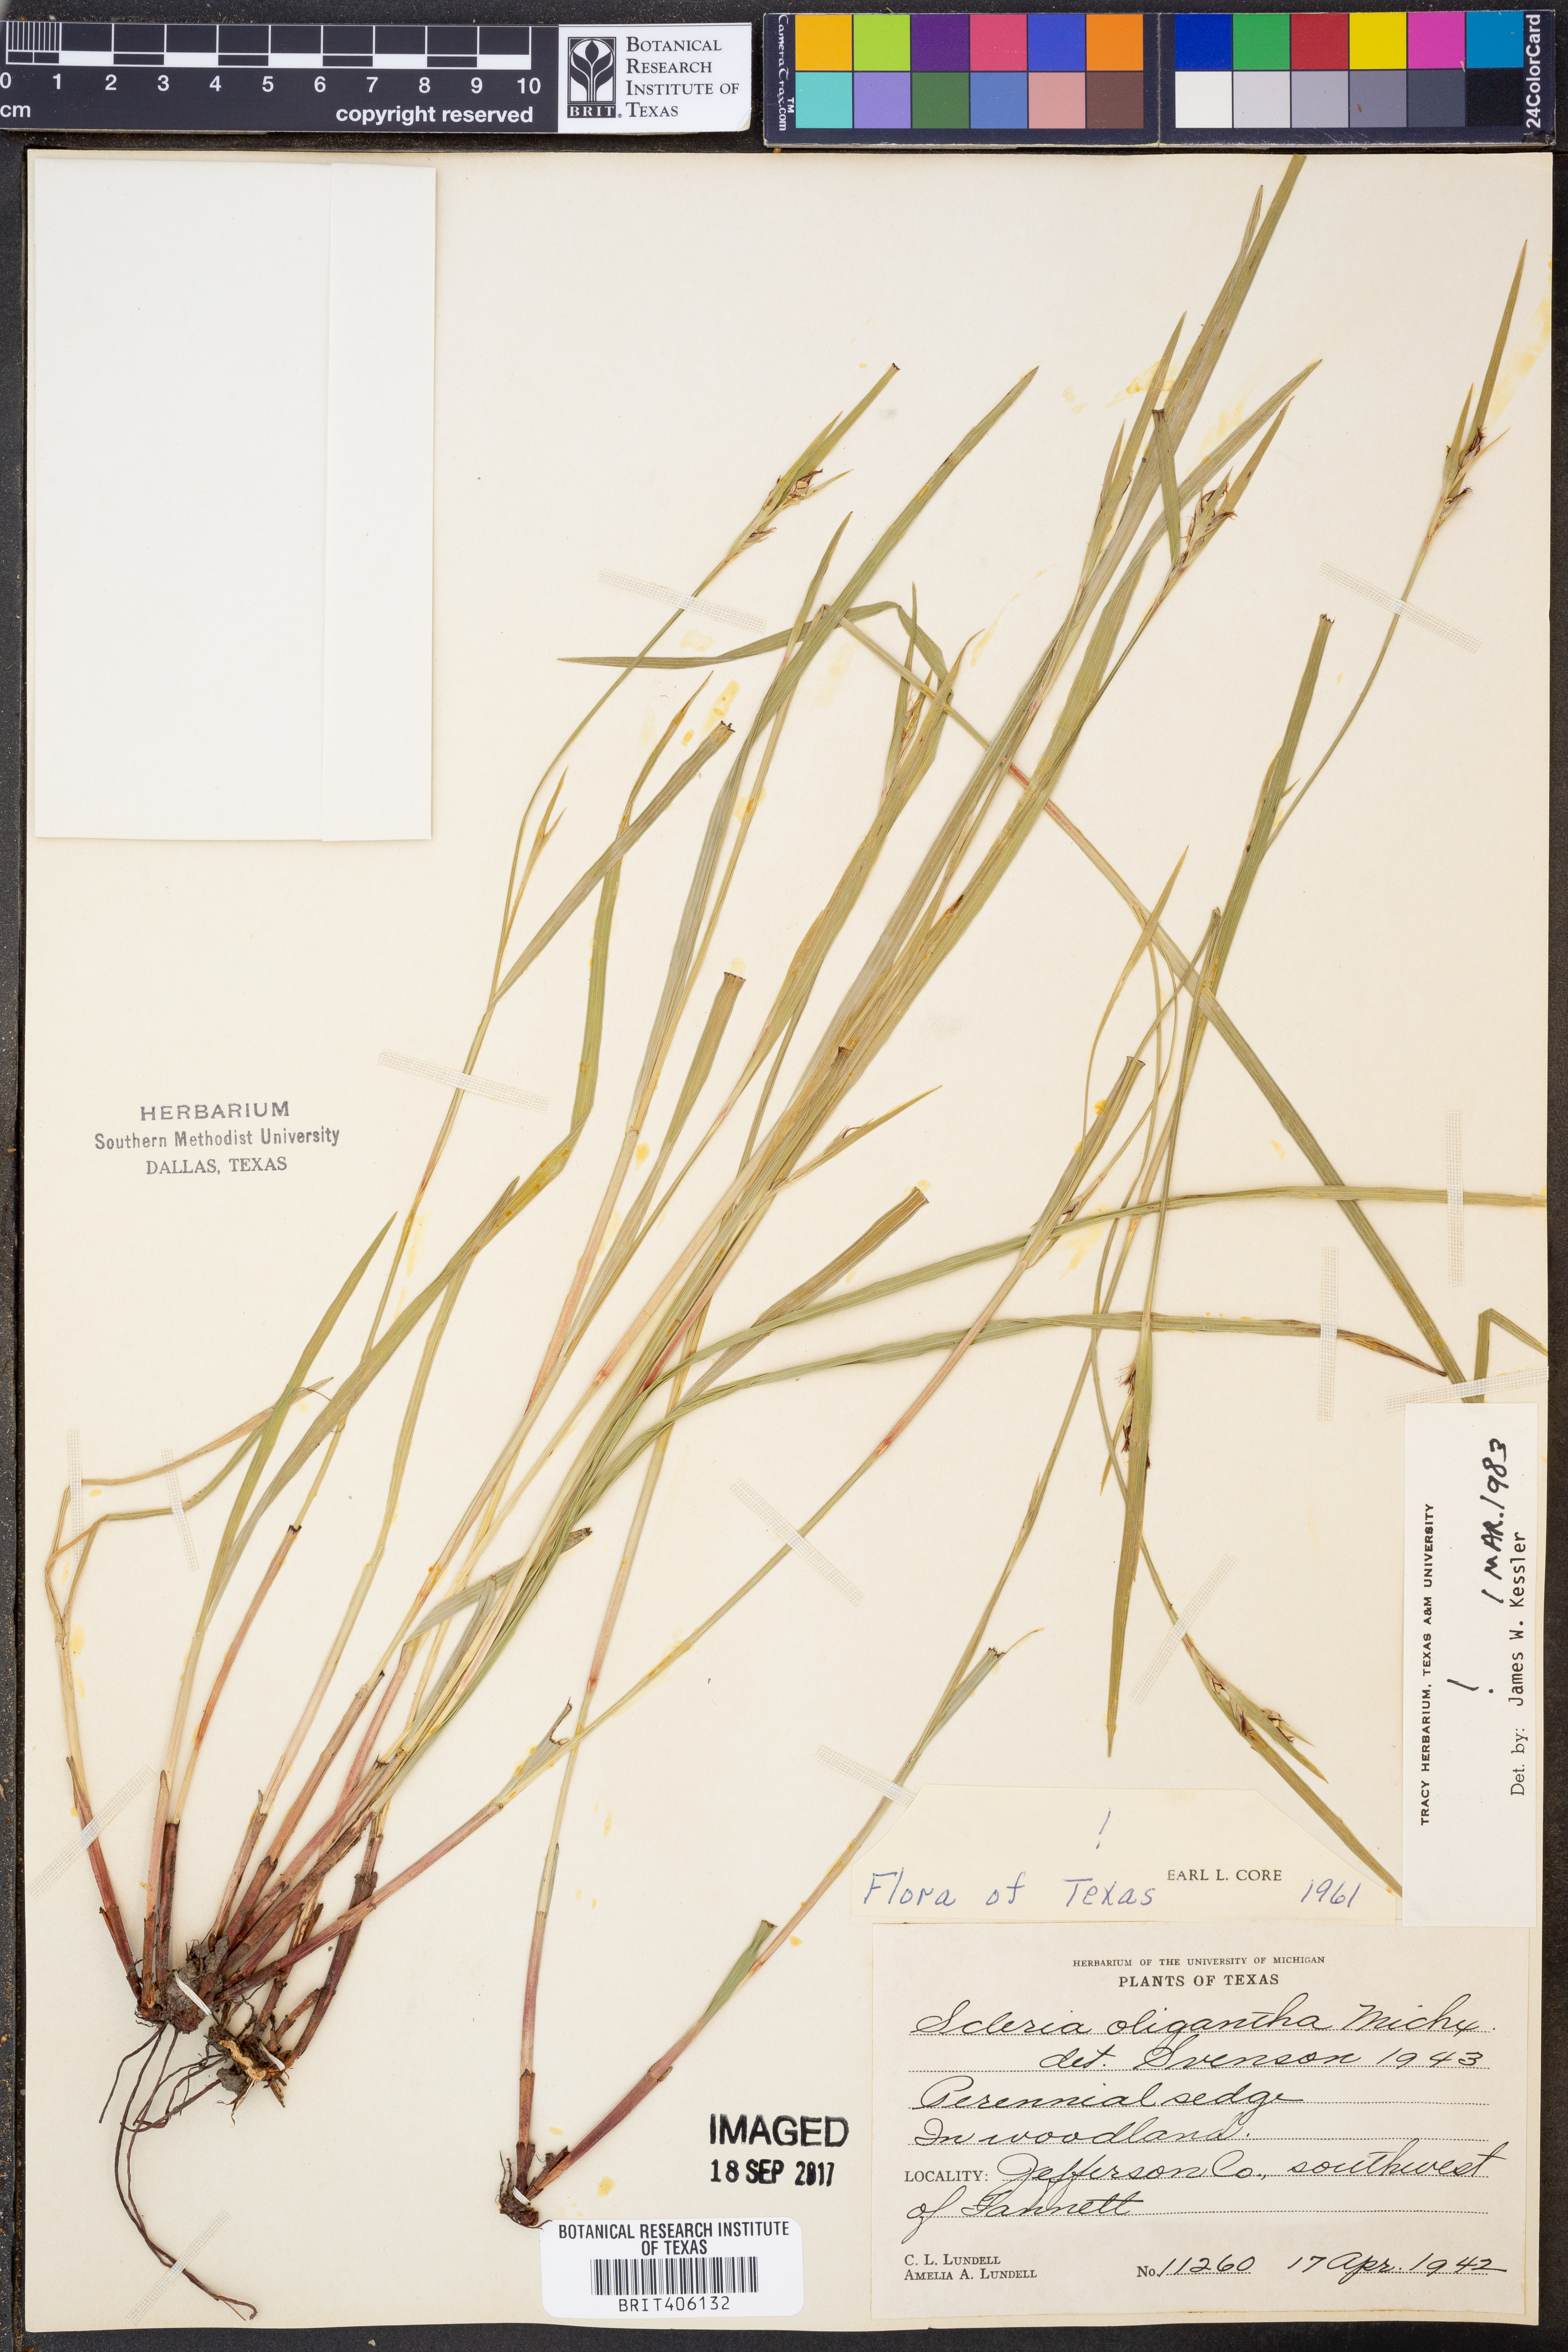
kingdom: Plantae
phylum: Tracheophyta
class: Liliopsida
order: Poales
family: Cyperaceae
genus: Scleria
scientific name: Scleria oligantha
